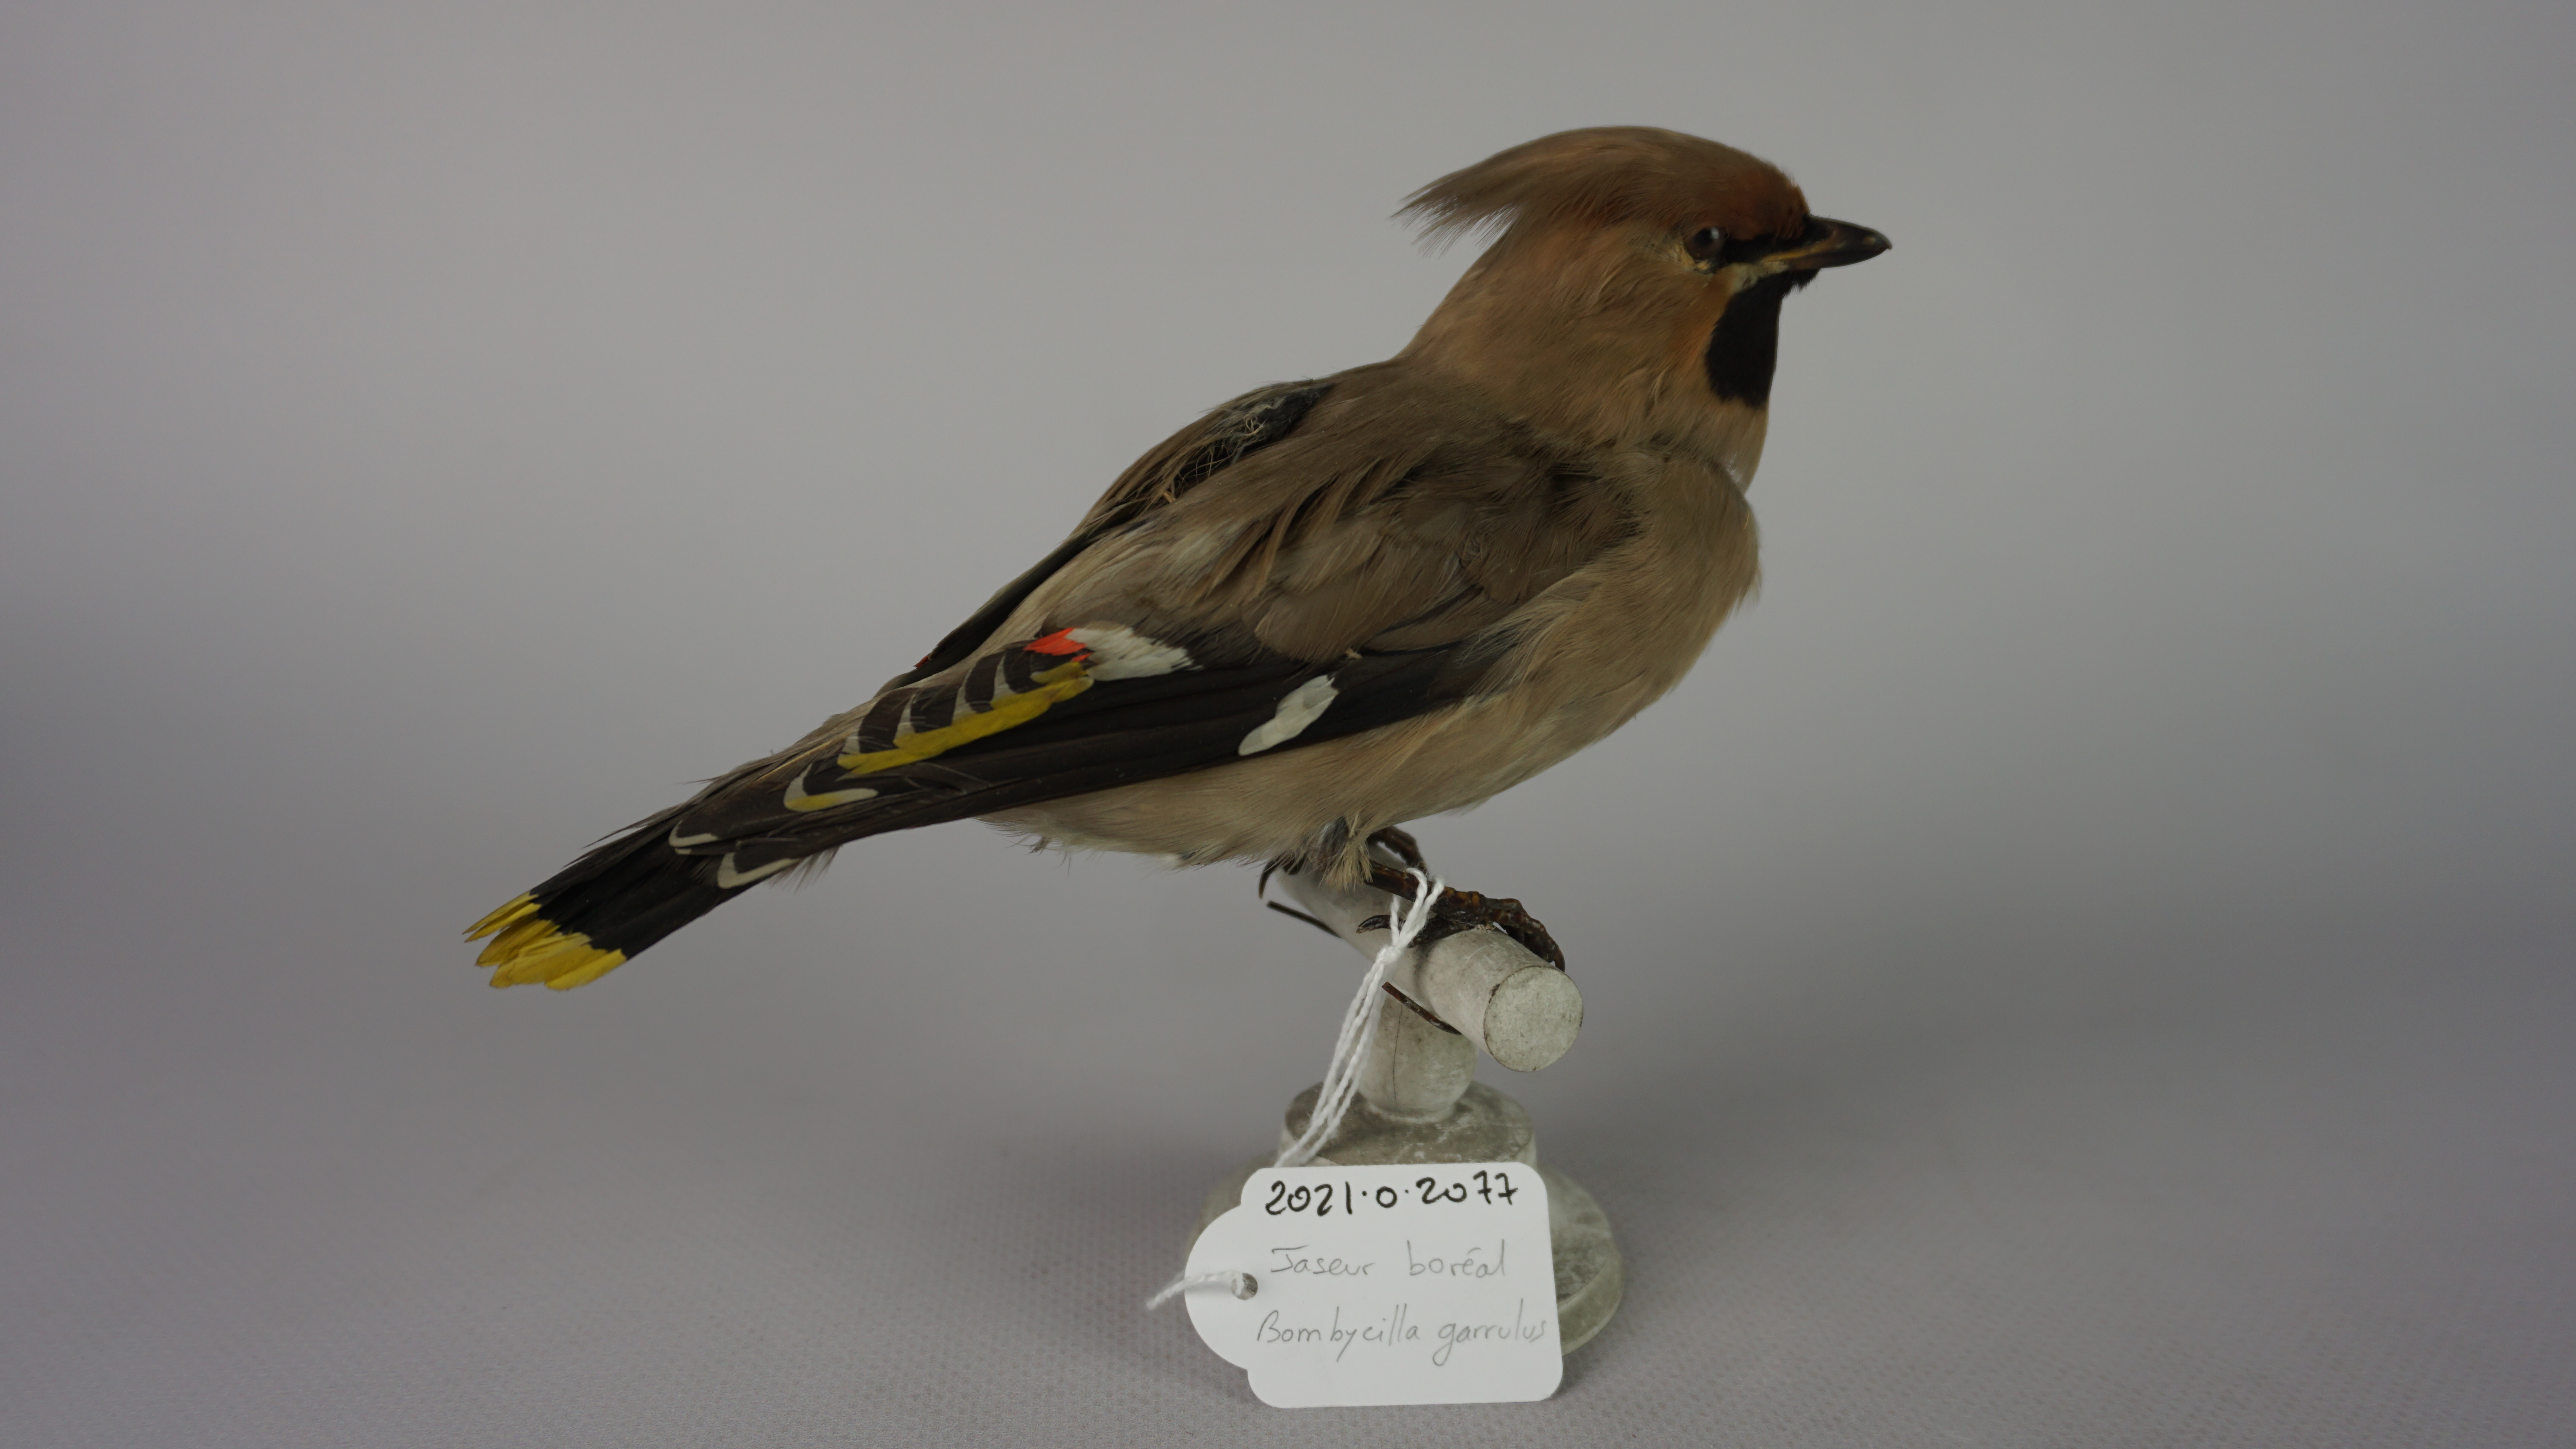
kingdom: Animalia
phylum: Chordata
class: Aves
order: Passeriformes
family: Bombycillidae
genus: Bombycilla
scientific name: Bombycilla garrulus
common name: Bohemian waxwing
